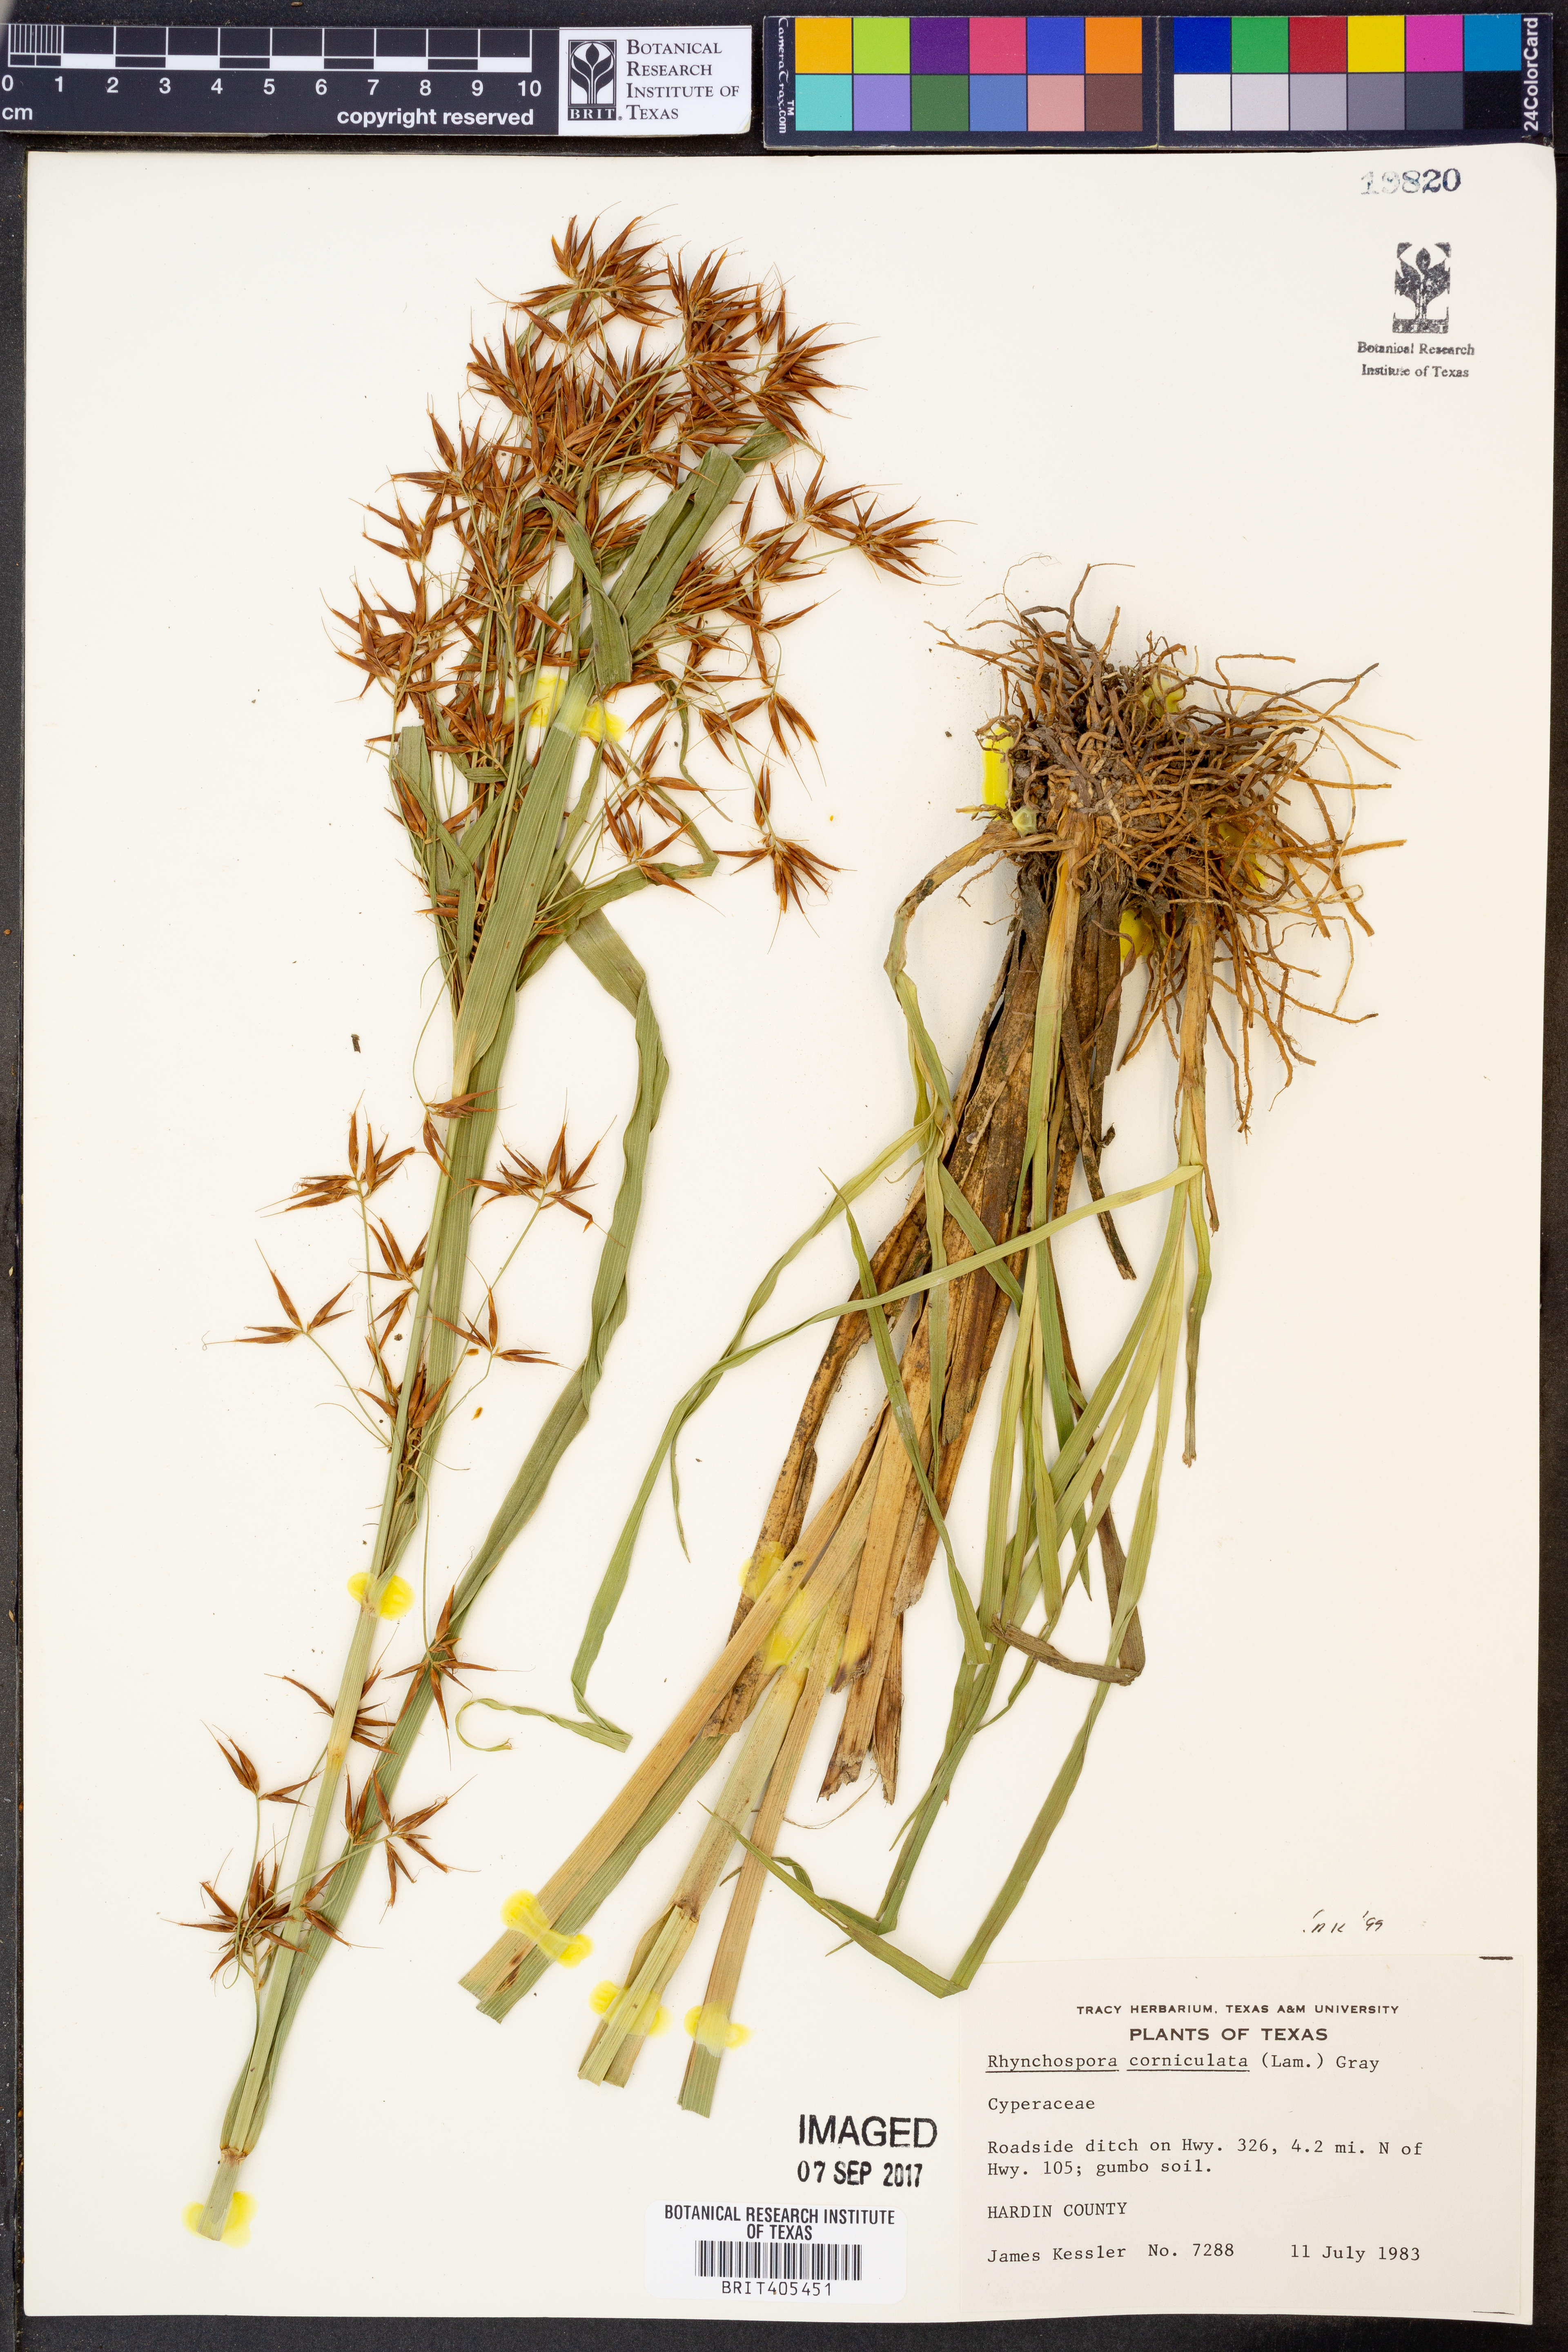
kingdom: Plantae
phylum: Tracheophyta
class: Liliopsida
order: Poales
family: Cyperaceae
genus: Rhynchospora
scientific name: Rhynchospora corniculata
